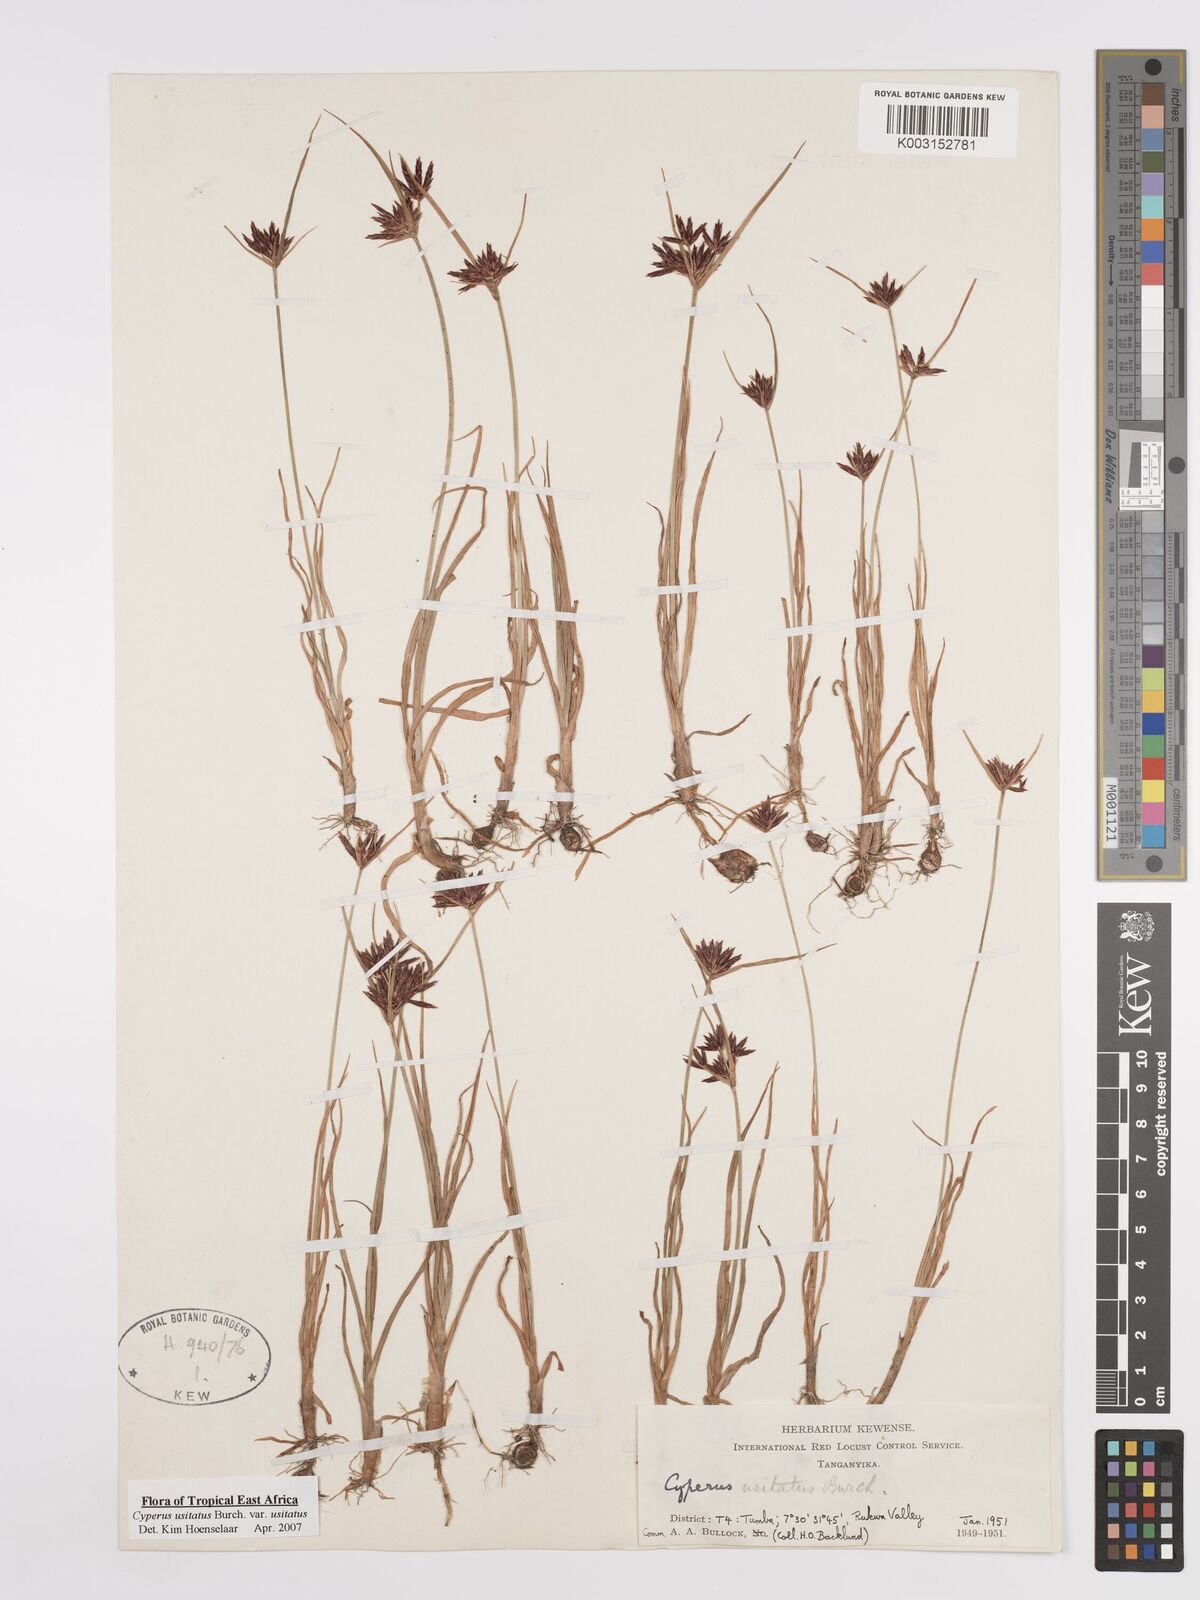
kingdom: Plantae
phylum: Tracheophyta
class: Liliopsida
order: Poales
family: Cyperaceae
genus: Cyperus
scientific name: Cyperus usitatus
